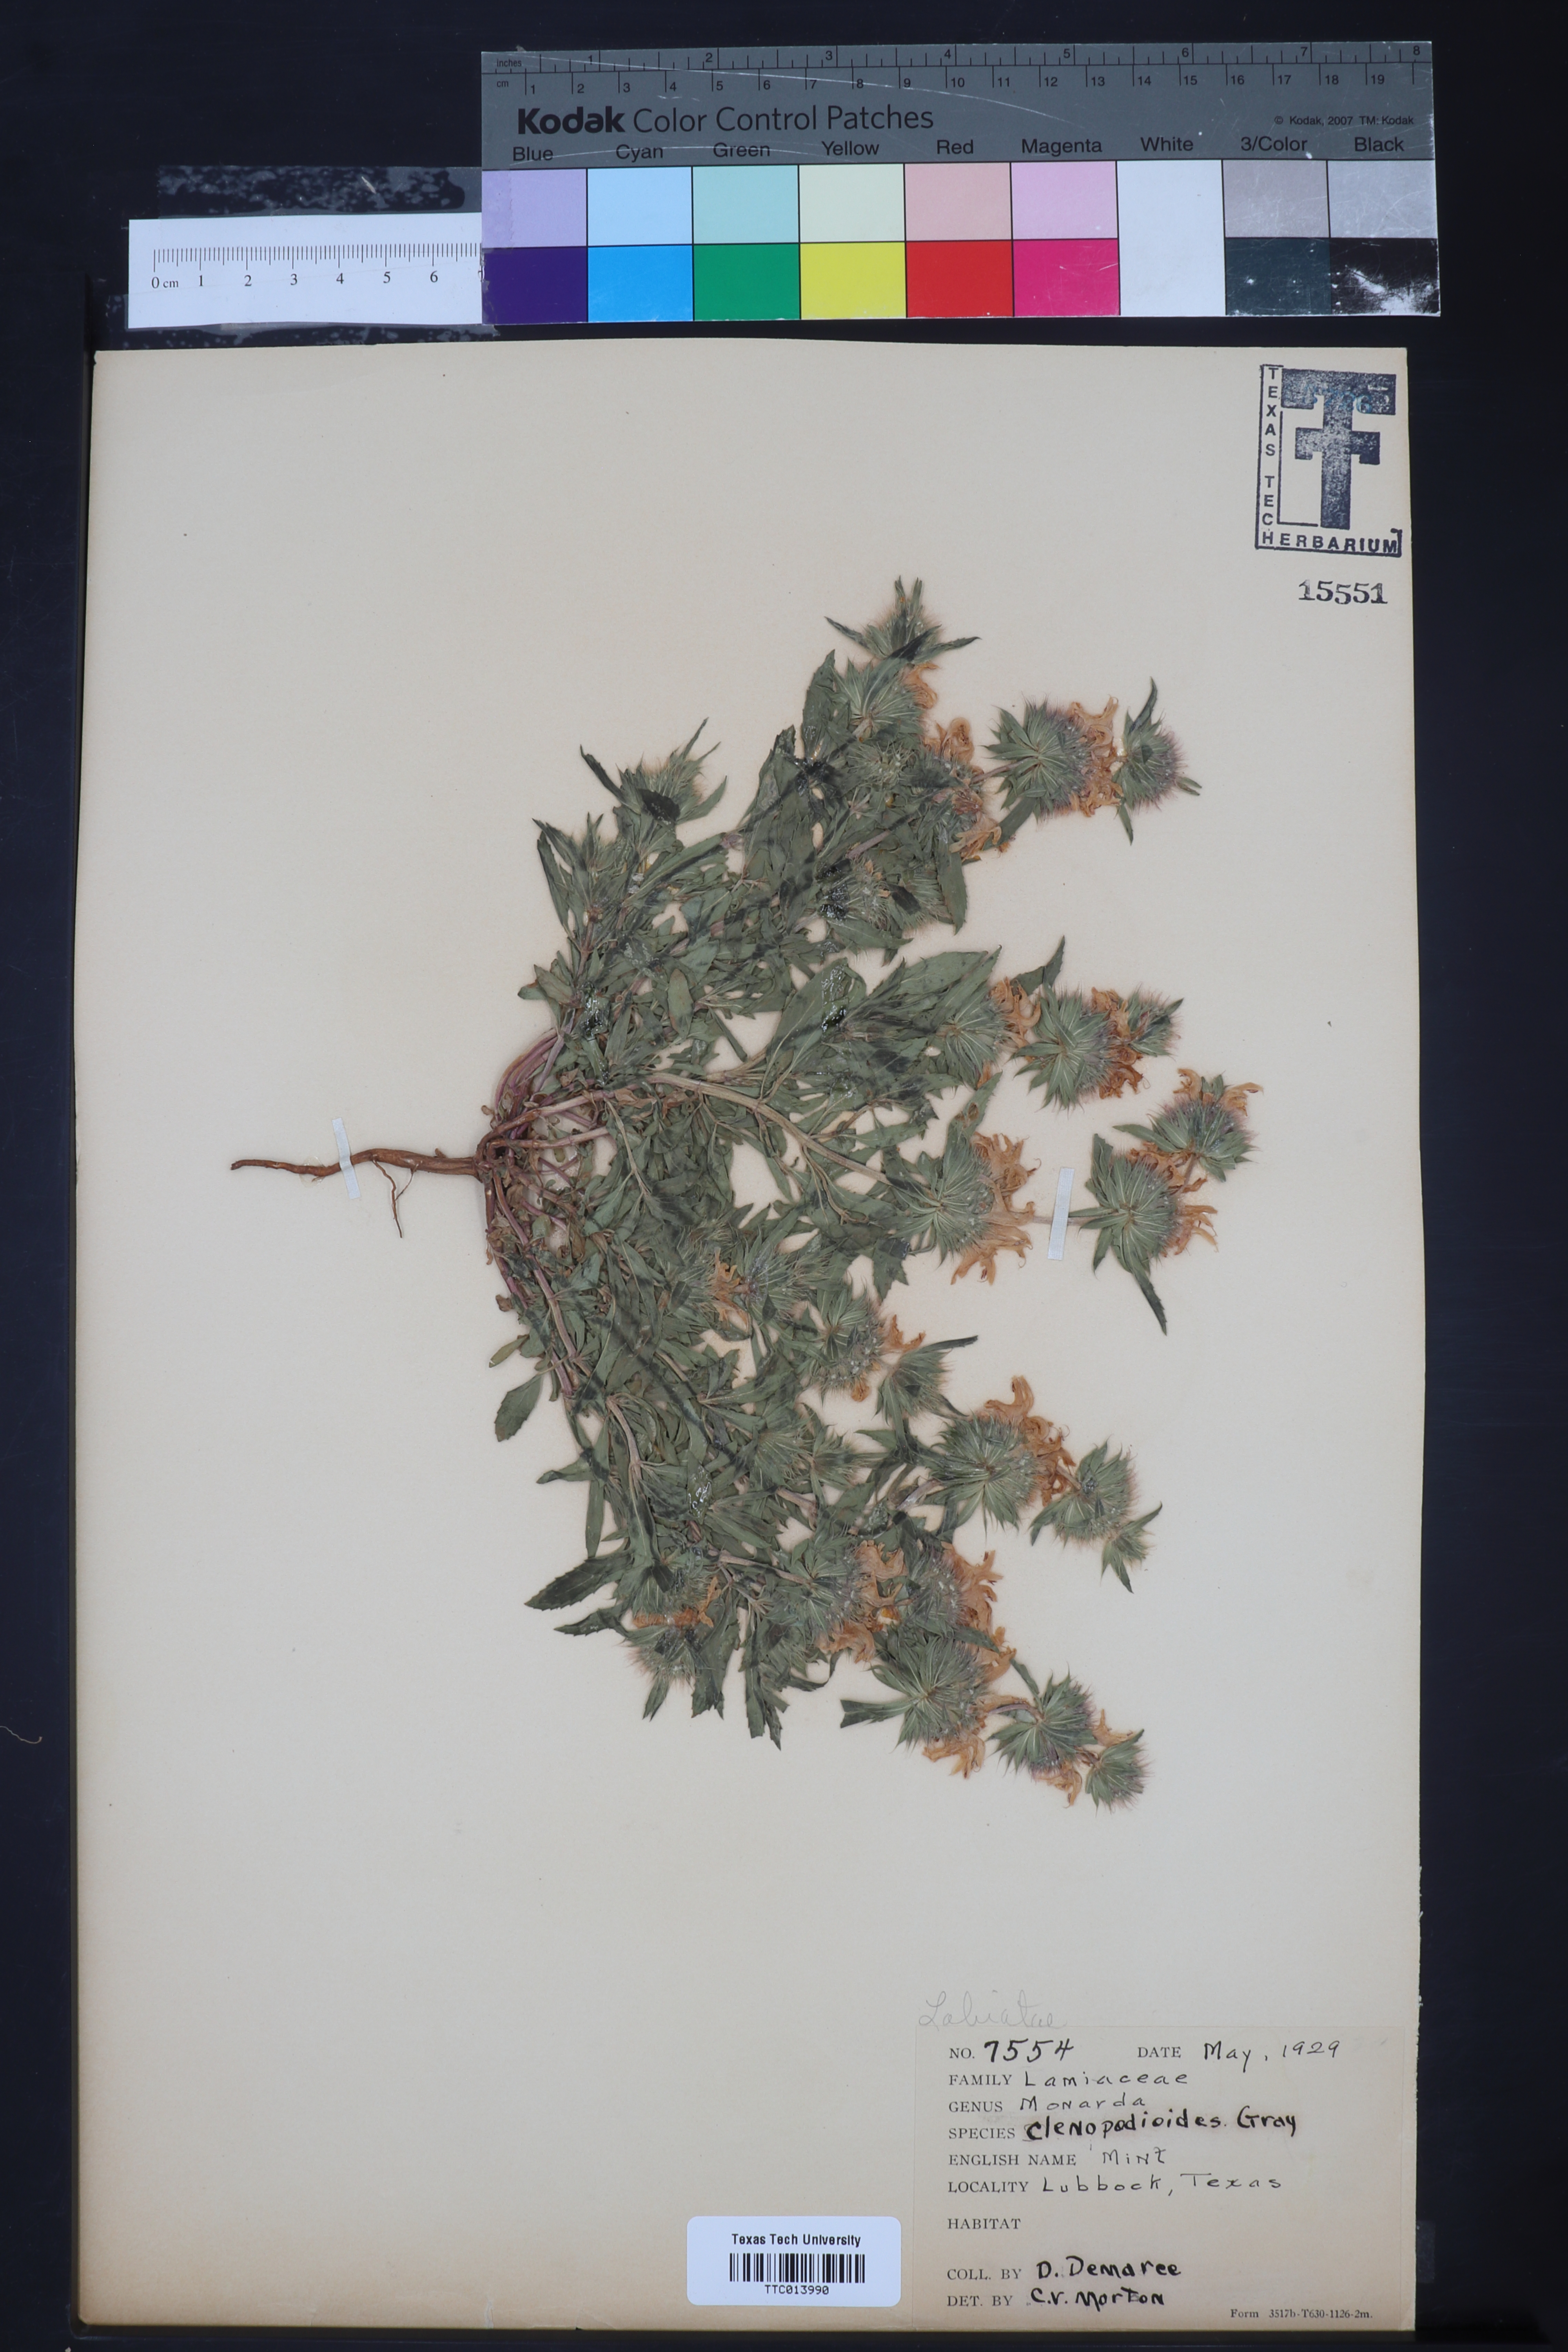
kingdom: Plantae
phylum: Tracheophyta
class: Magnoliopsida
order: Lamiales
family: Lamiaceae
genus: Monarda
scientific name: Monarda clinopodioides
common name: Basil beebalm
